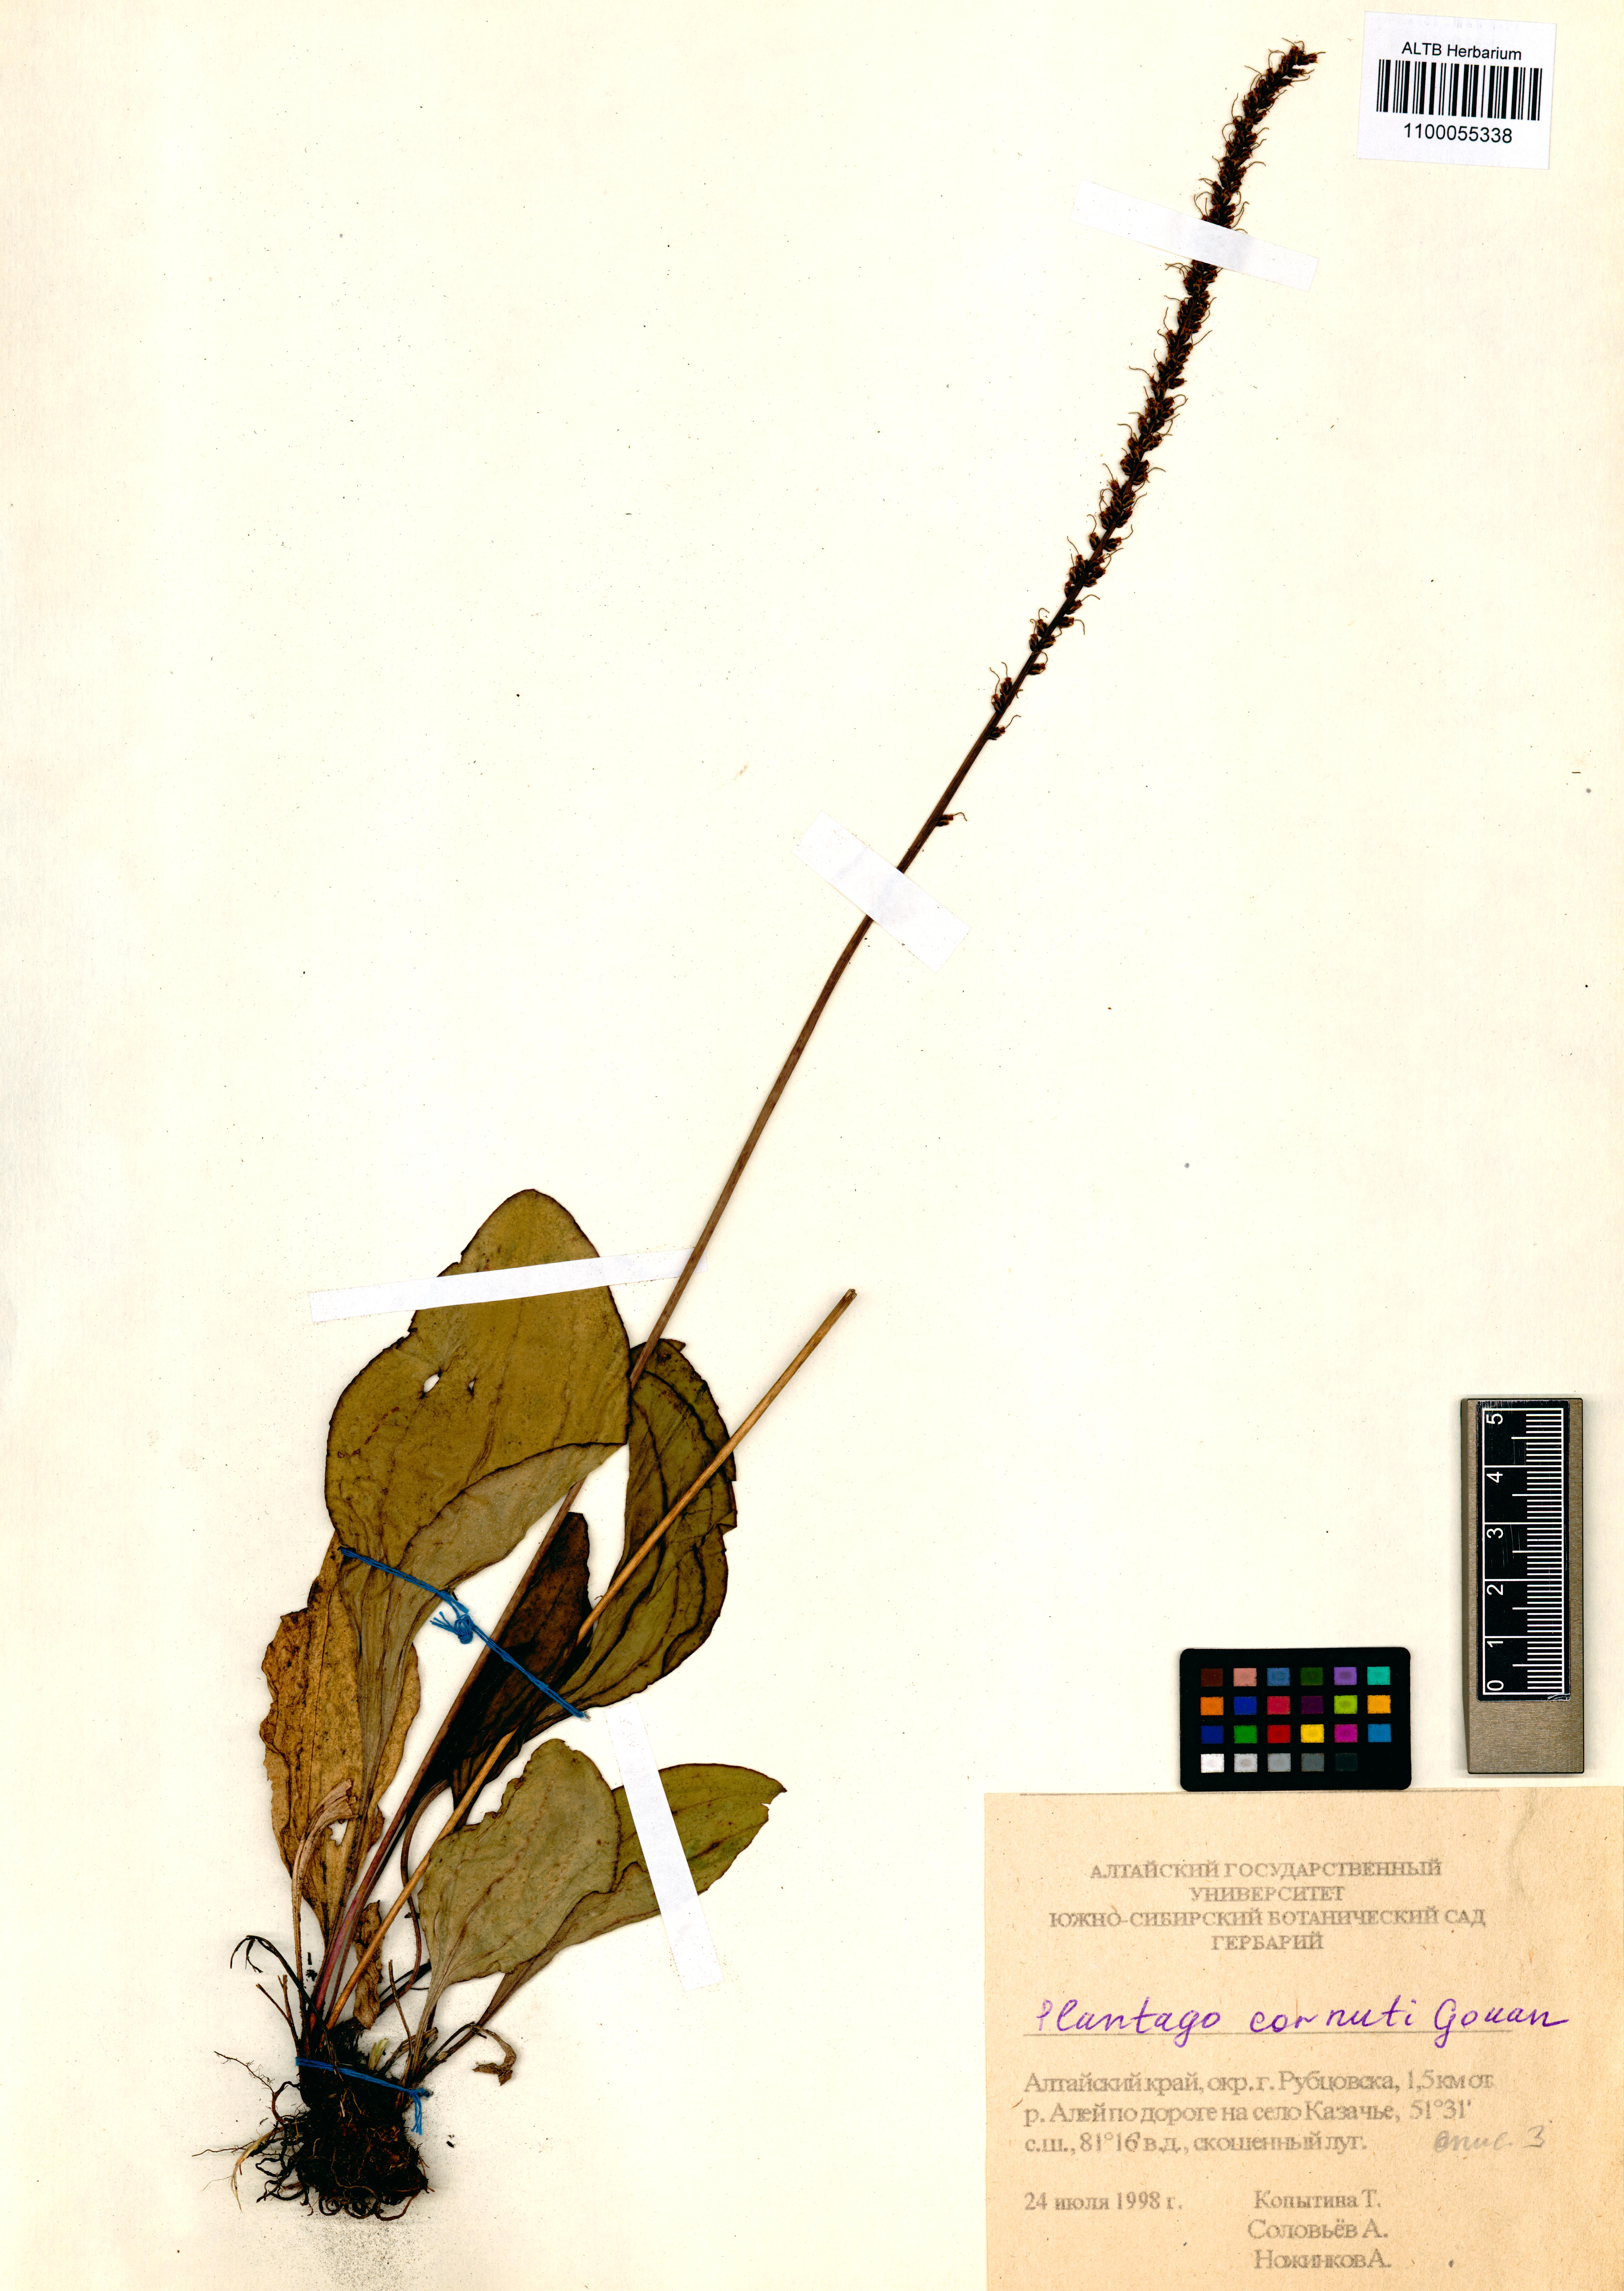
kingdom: Plantae
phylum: Tracheophyta
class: Magnoliopsida
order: Lamiales
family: Plantaginaceae
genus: Plantago
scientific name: Plantago cornuti
